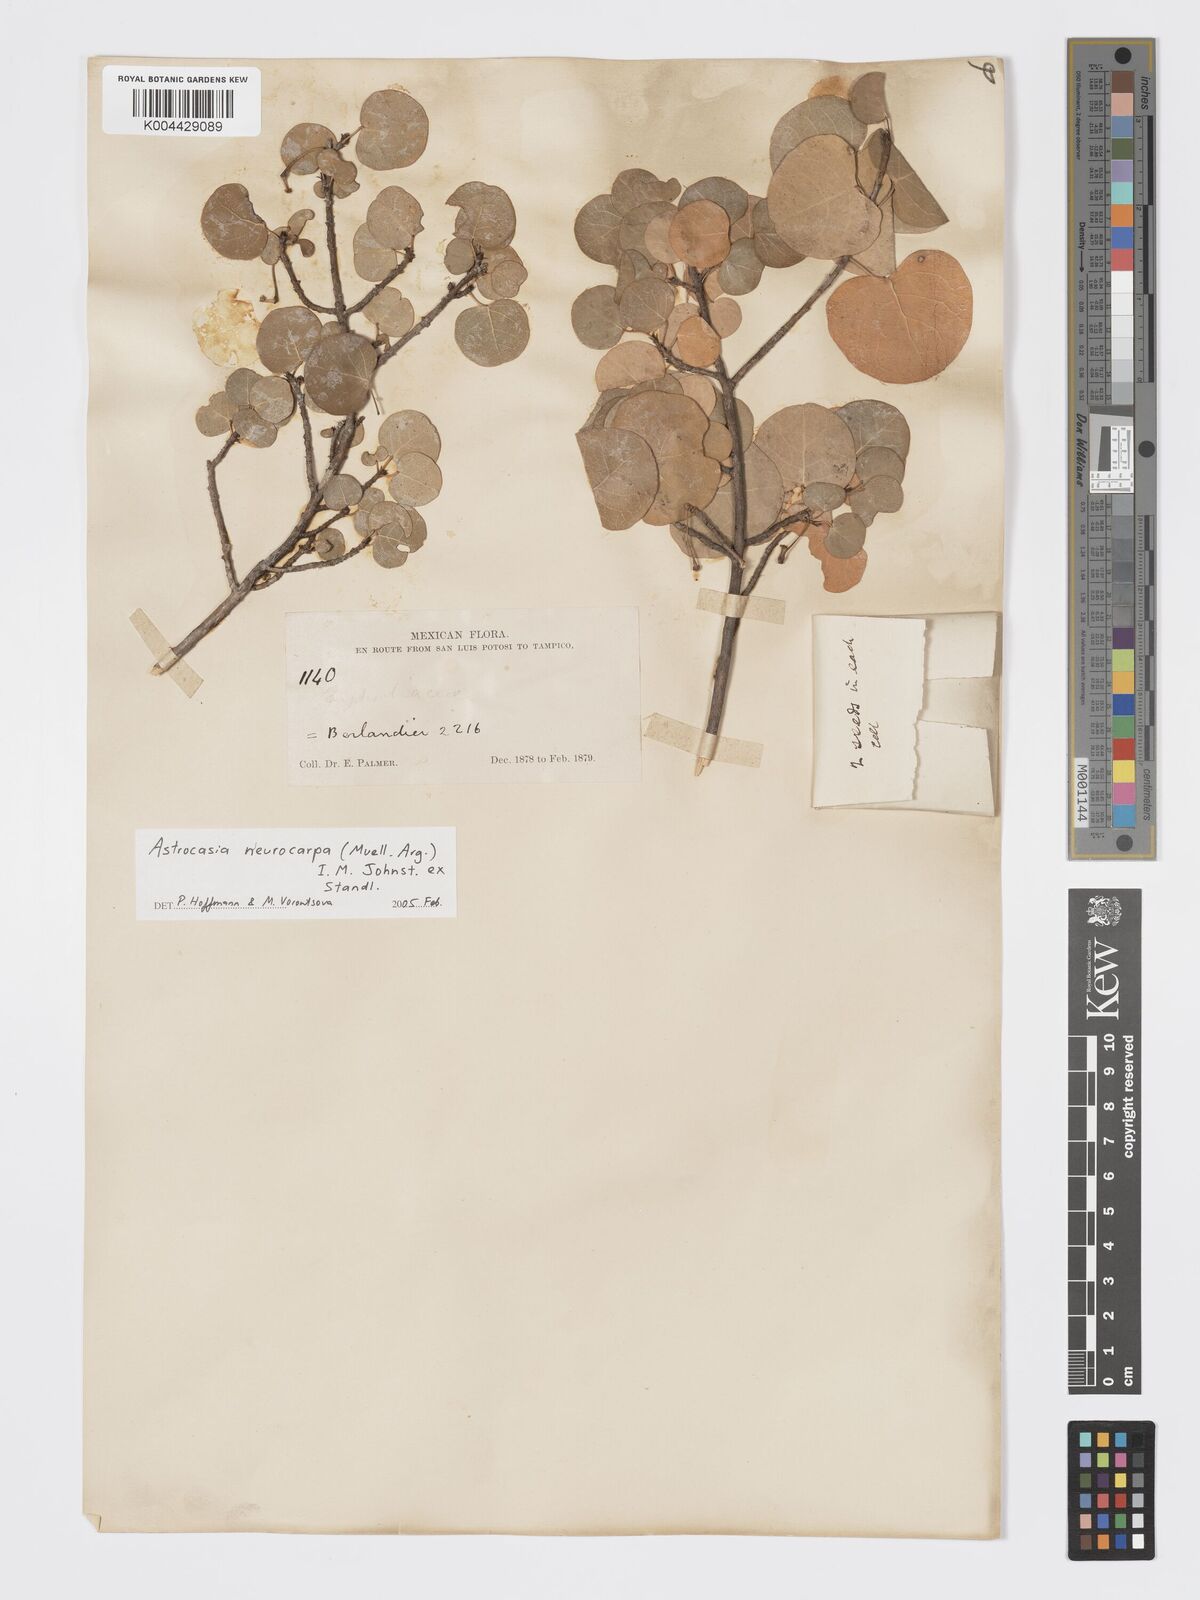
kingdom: Plantae
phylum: Tracheophyta
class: Magnoliopsida
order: Malpighiales
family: Phyllanthaceae
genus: Astrocasia
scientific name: Astrocasia neurocarpa
